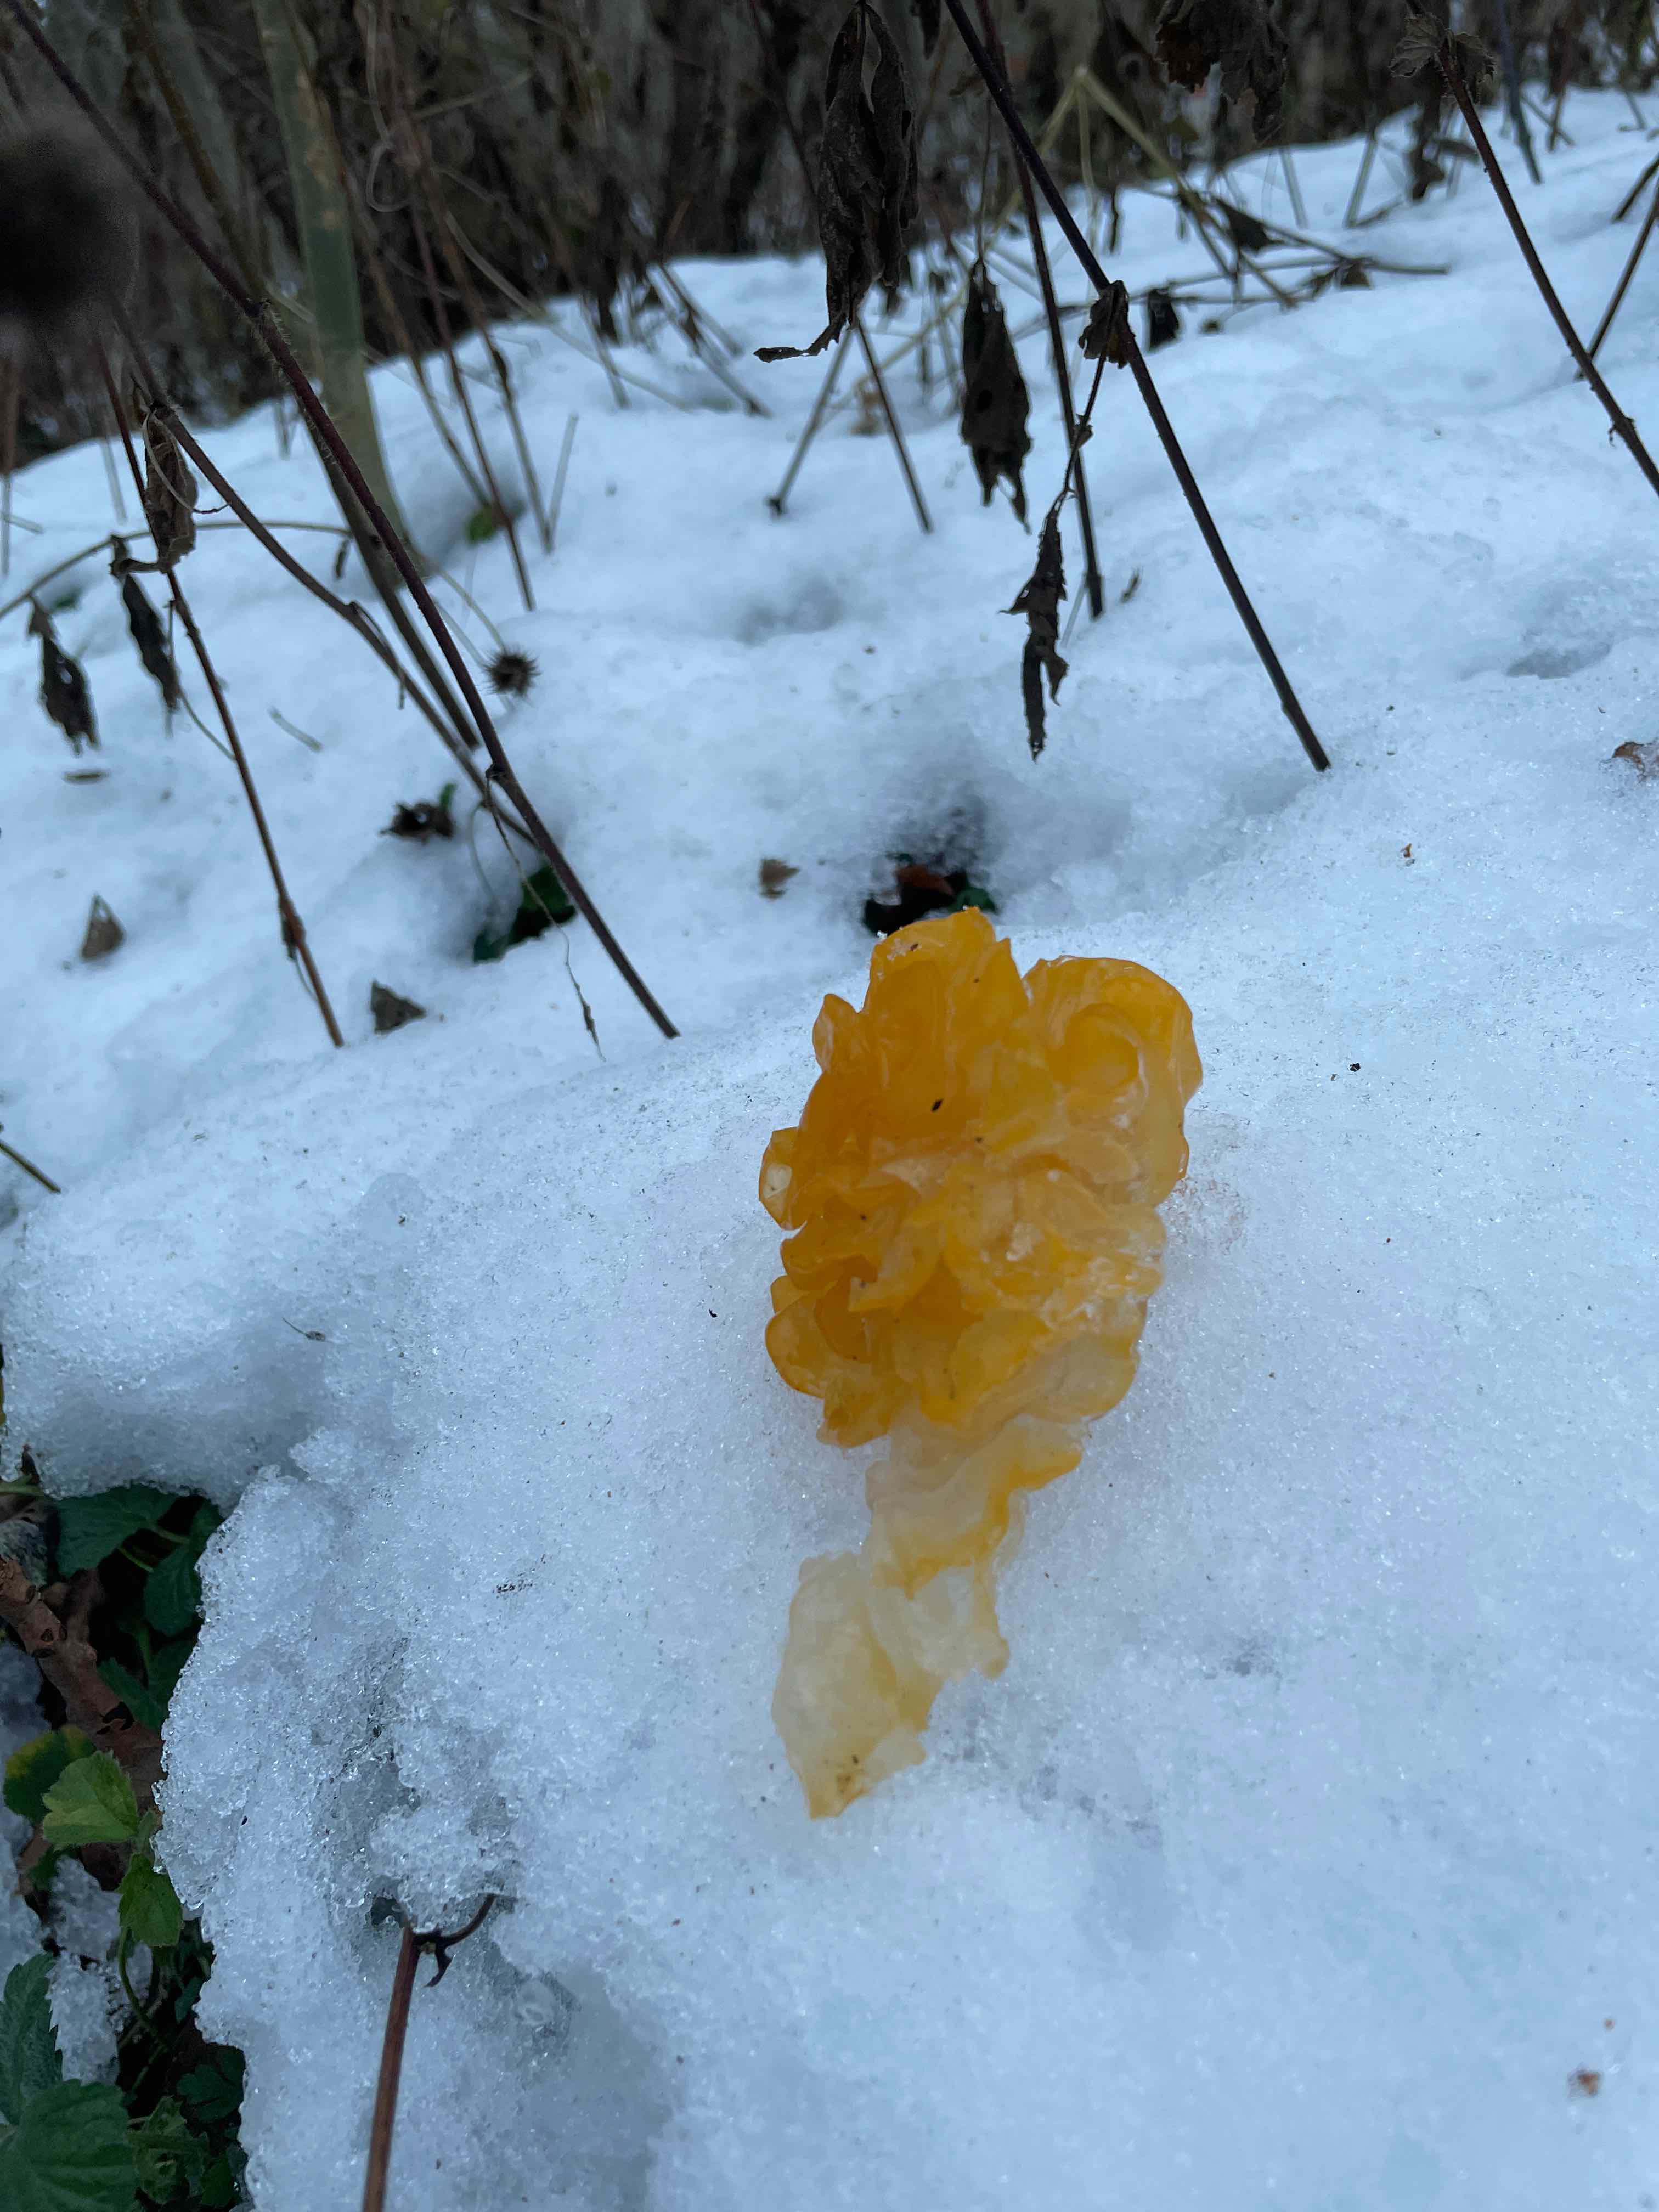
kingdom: Fungi
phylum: Basidiomycota
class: Tremellomycetes
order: Tremellales
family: Tremellaceae
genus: Tremella
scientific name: Tremella mesenterica
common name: gul bævresvamp
